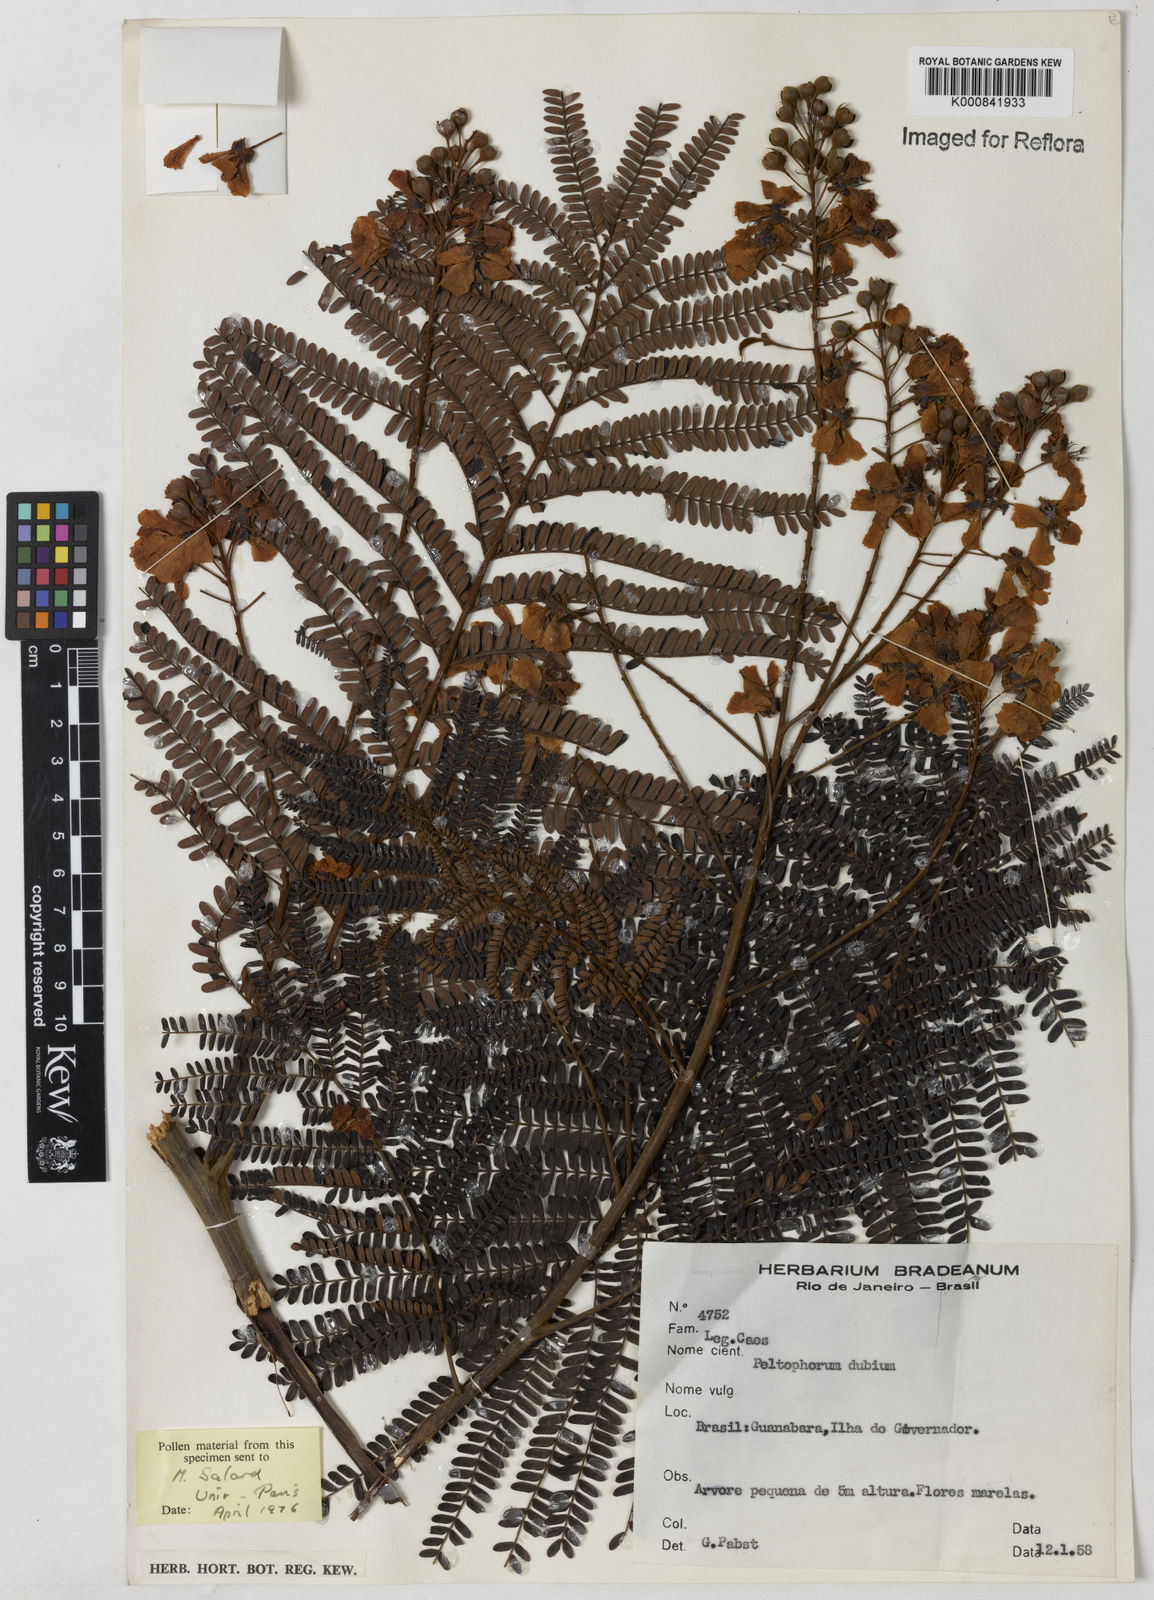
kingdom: Plantae
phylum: Tracheophyta
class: Magnoliopsida
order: Fabales
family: Fabaceae
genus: Peltophorum
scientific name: Peltophorum dubium
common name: Horsebush
